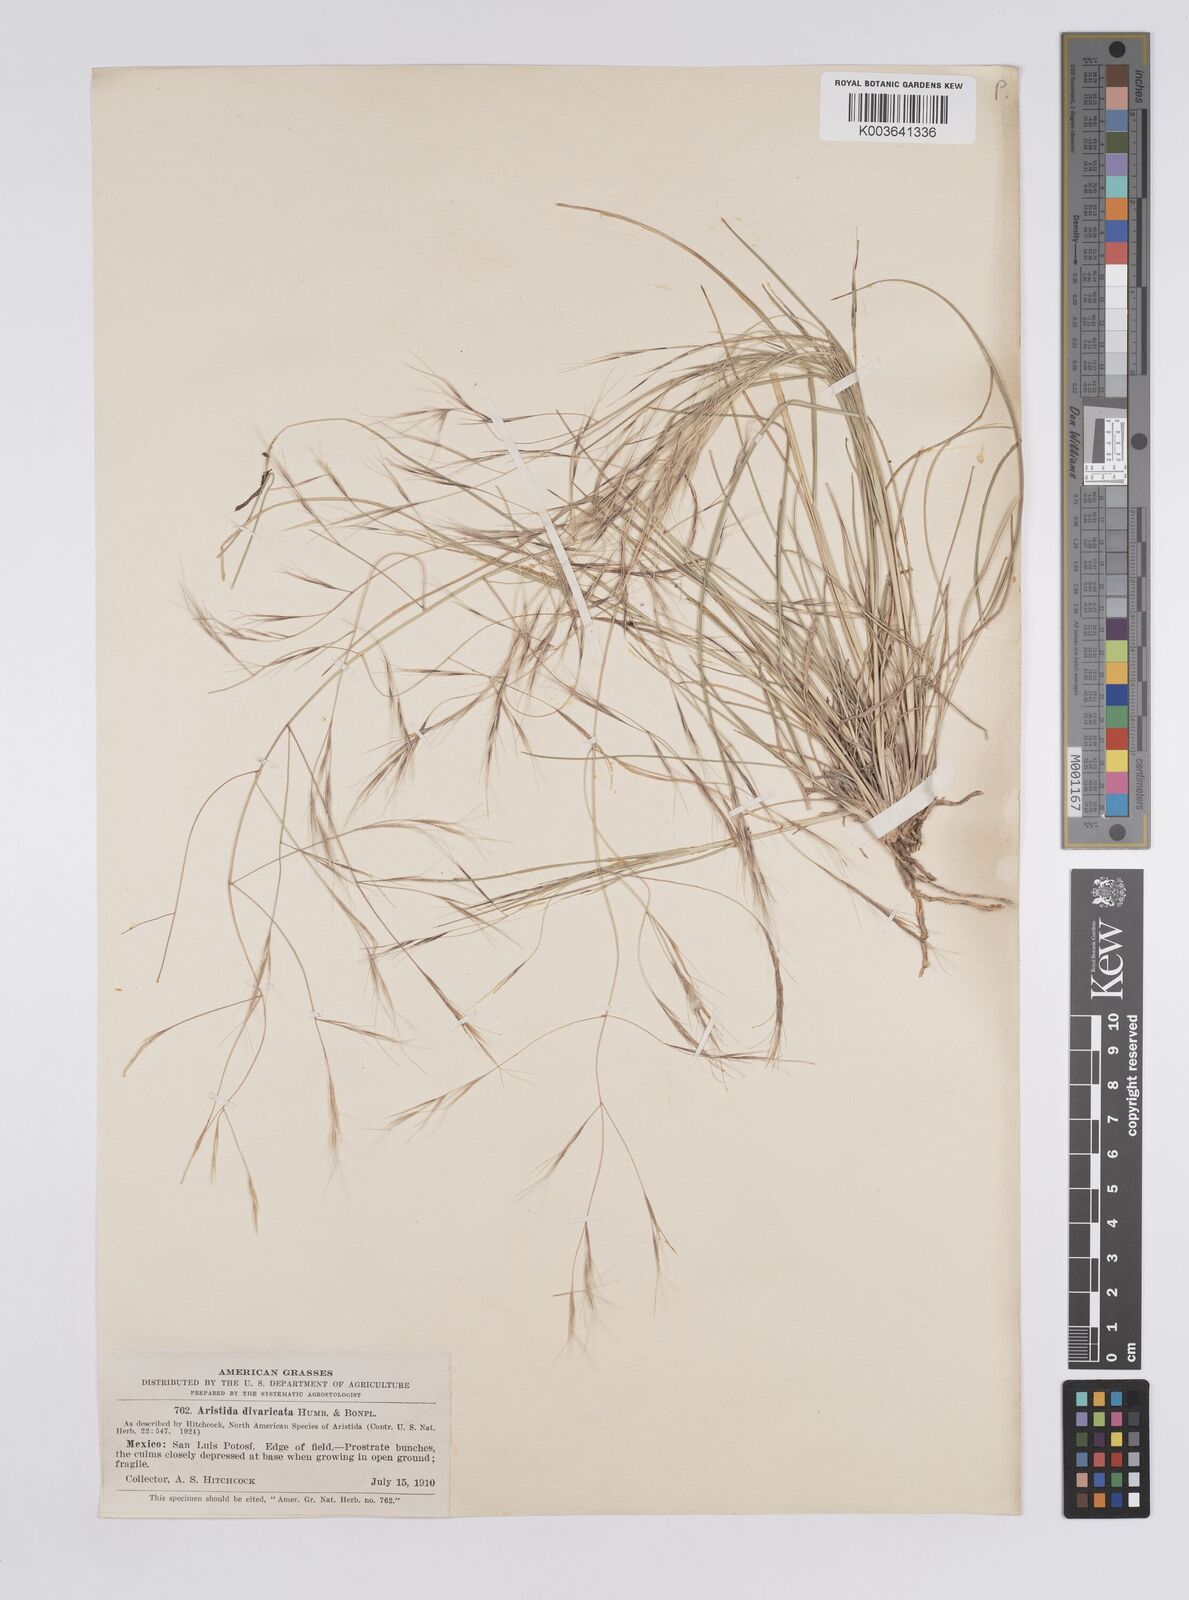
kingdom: Plantae
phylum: Tracheophyta
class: Liliopsida
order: Poales
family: Poaceae
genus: Aristida
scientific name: Aristida divaricata
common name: Poverty grass
